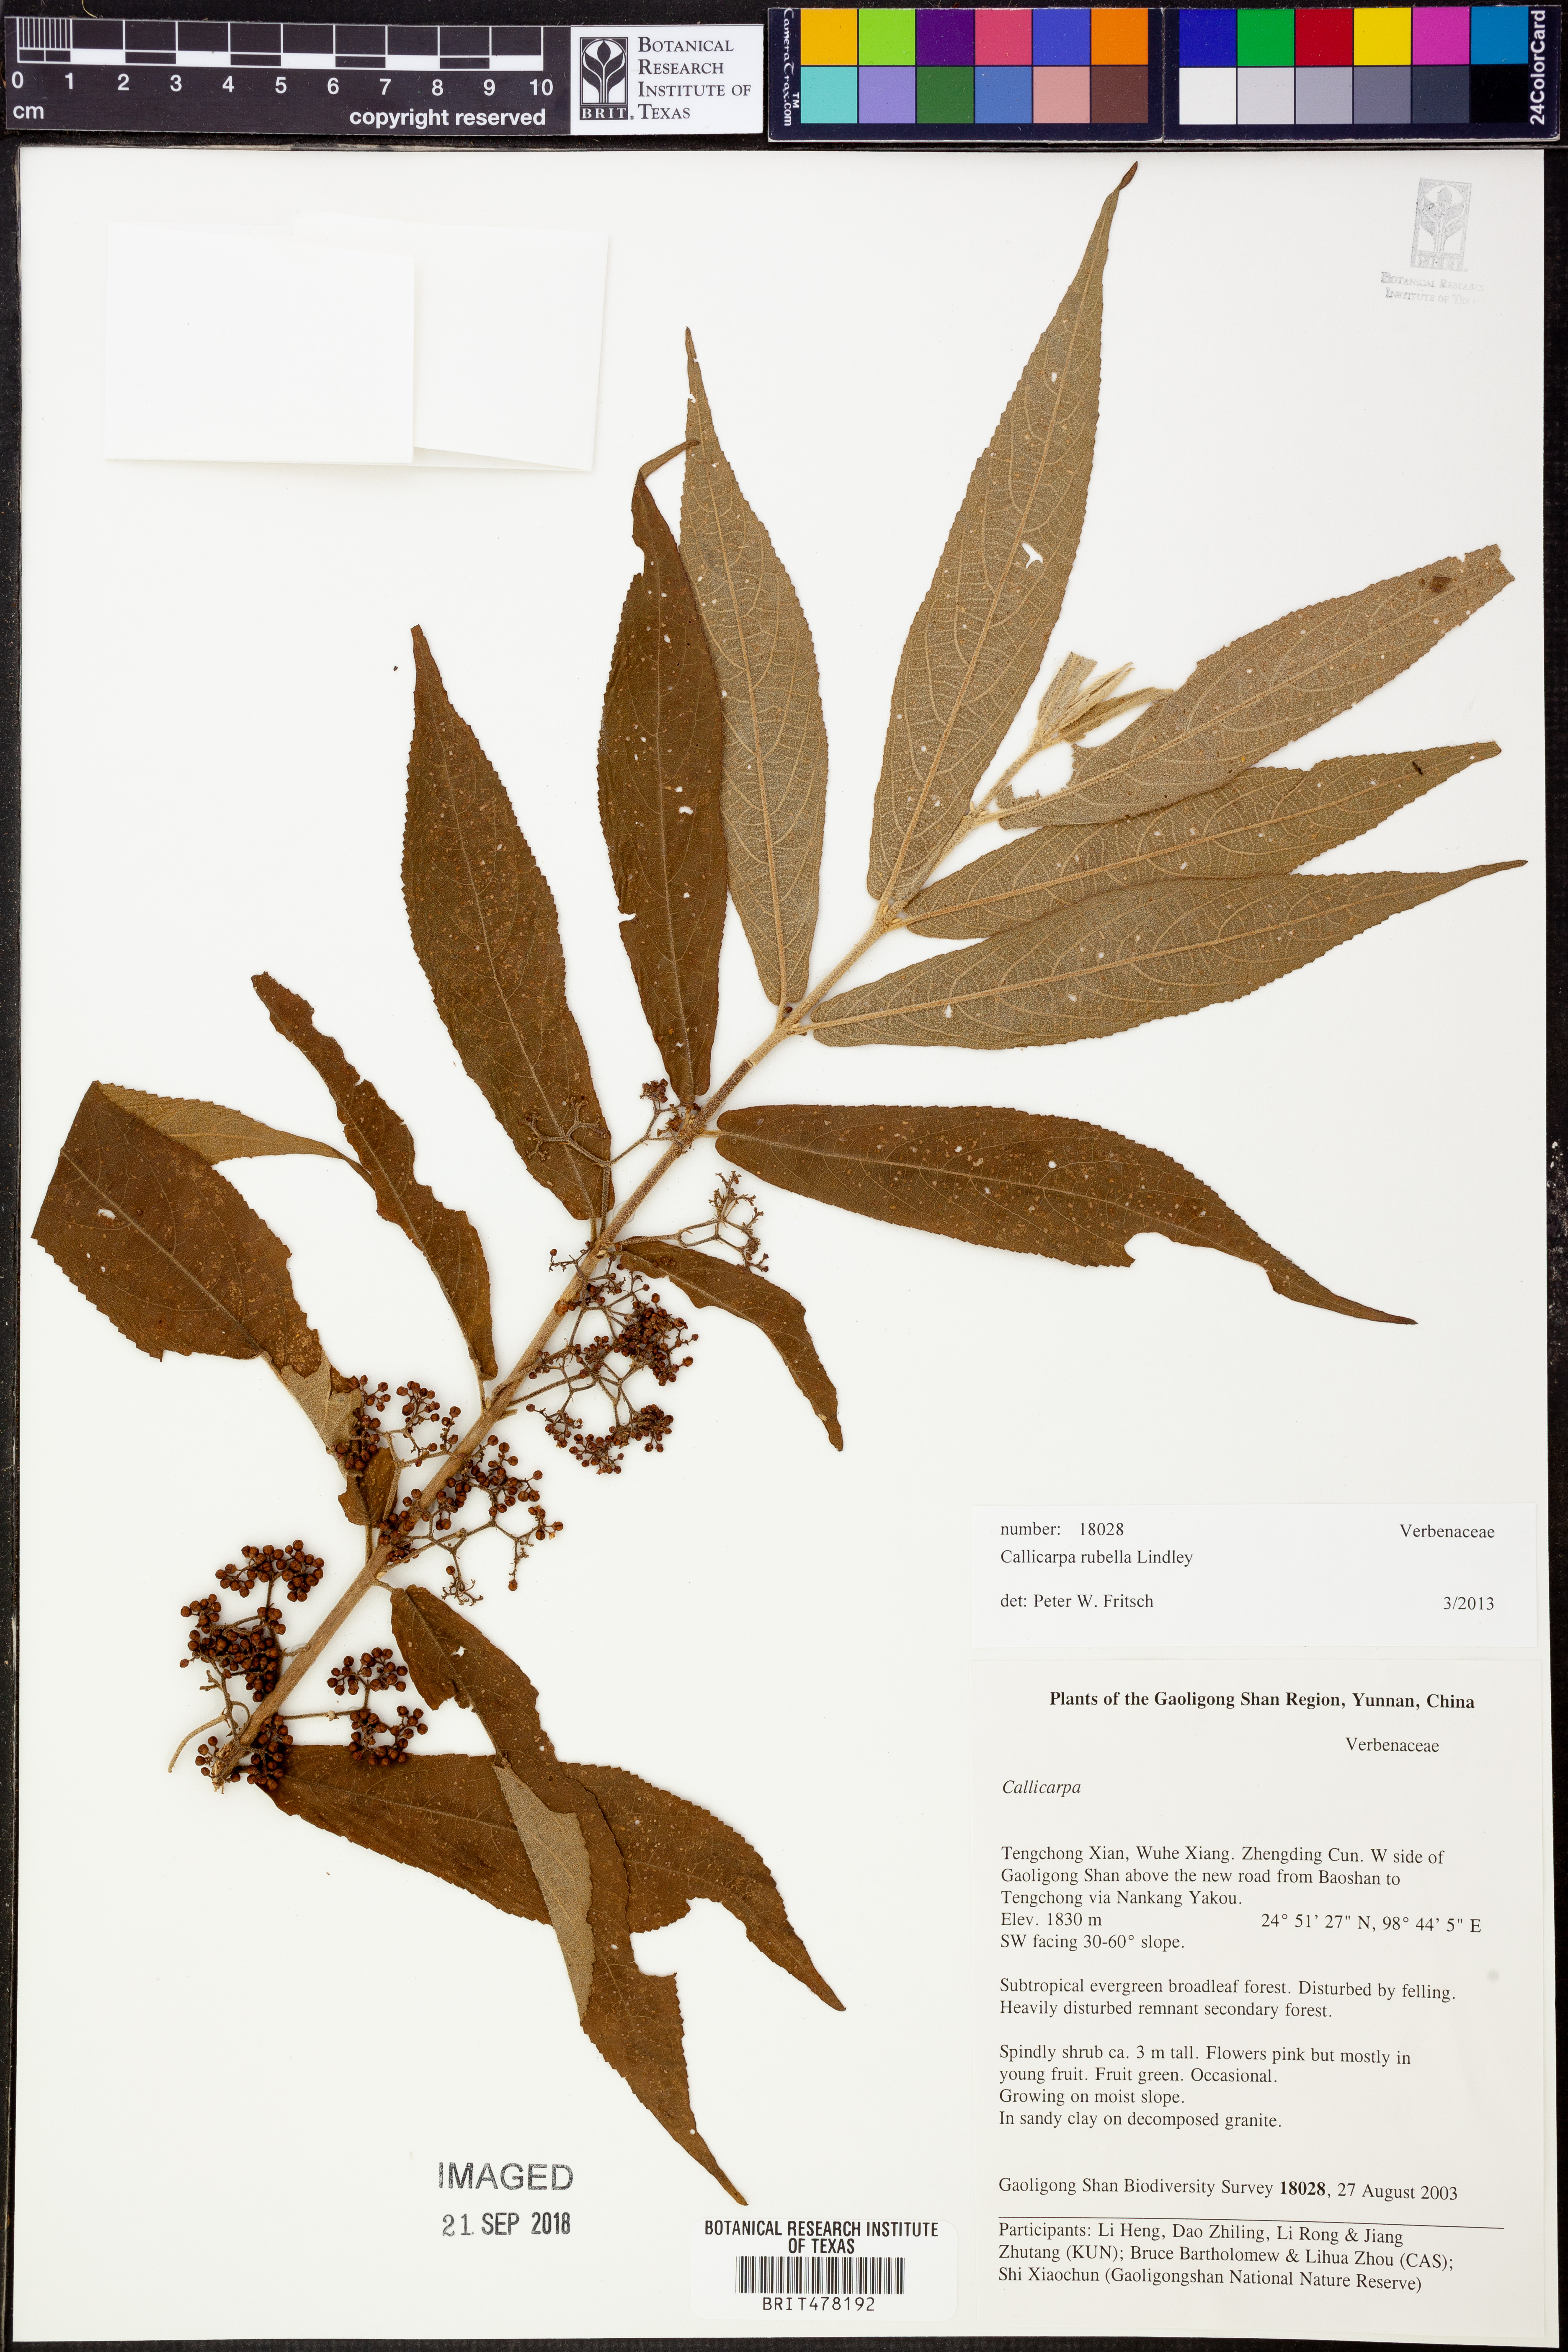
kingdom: Plantae
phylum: Tracheophyta
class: Magnoliopsida
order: Lamiales
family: Lamiaceae
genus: Callicarpa
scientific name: Callicarpa rubella
